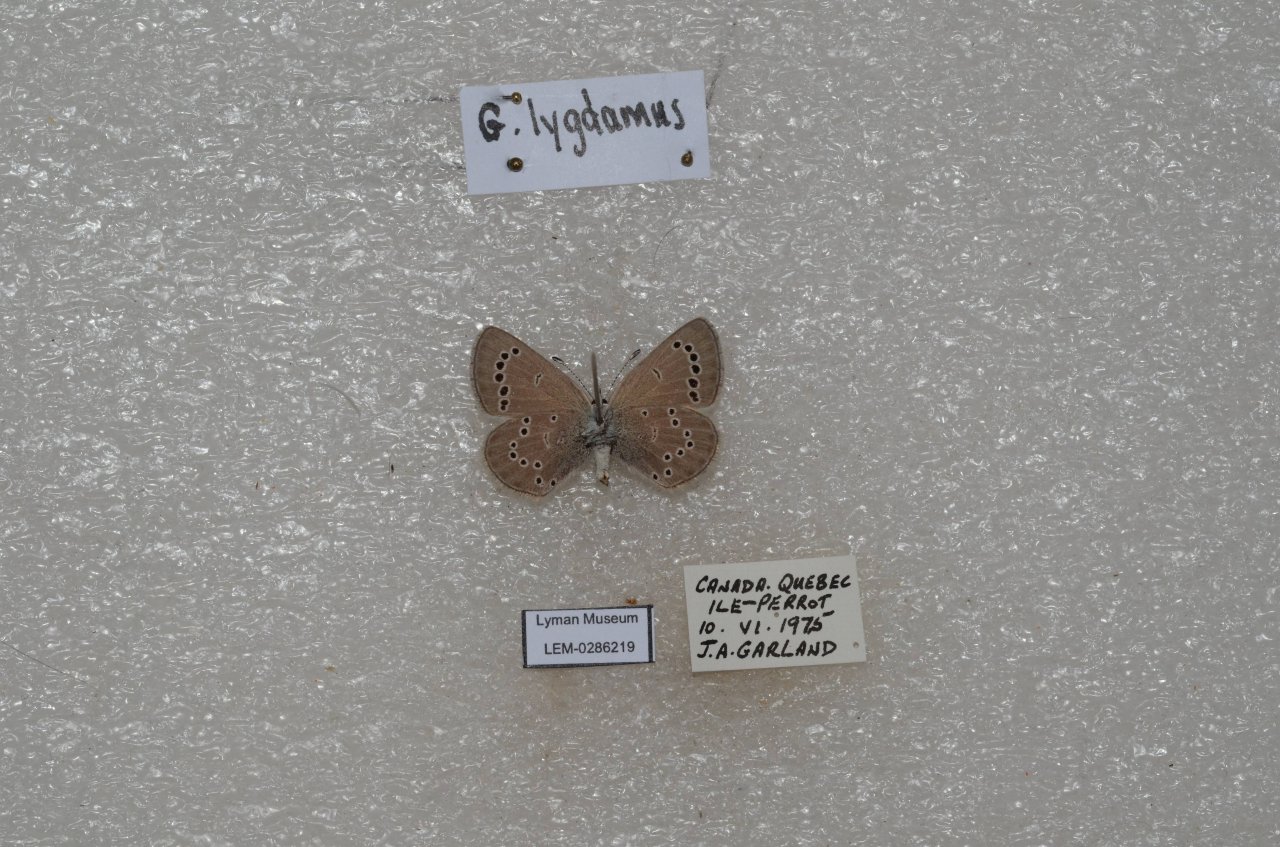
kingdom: Animalia
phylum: Arthropoda
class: Insecta
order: Lepidoptera
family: Lycaenidae
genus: Glaucopsyche
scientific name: Glaucopsyche lygdamus
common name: Silvery Blue
